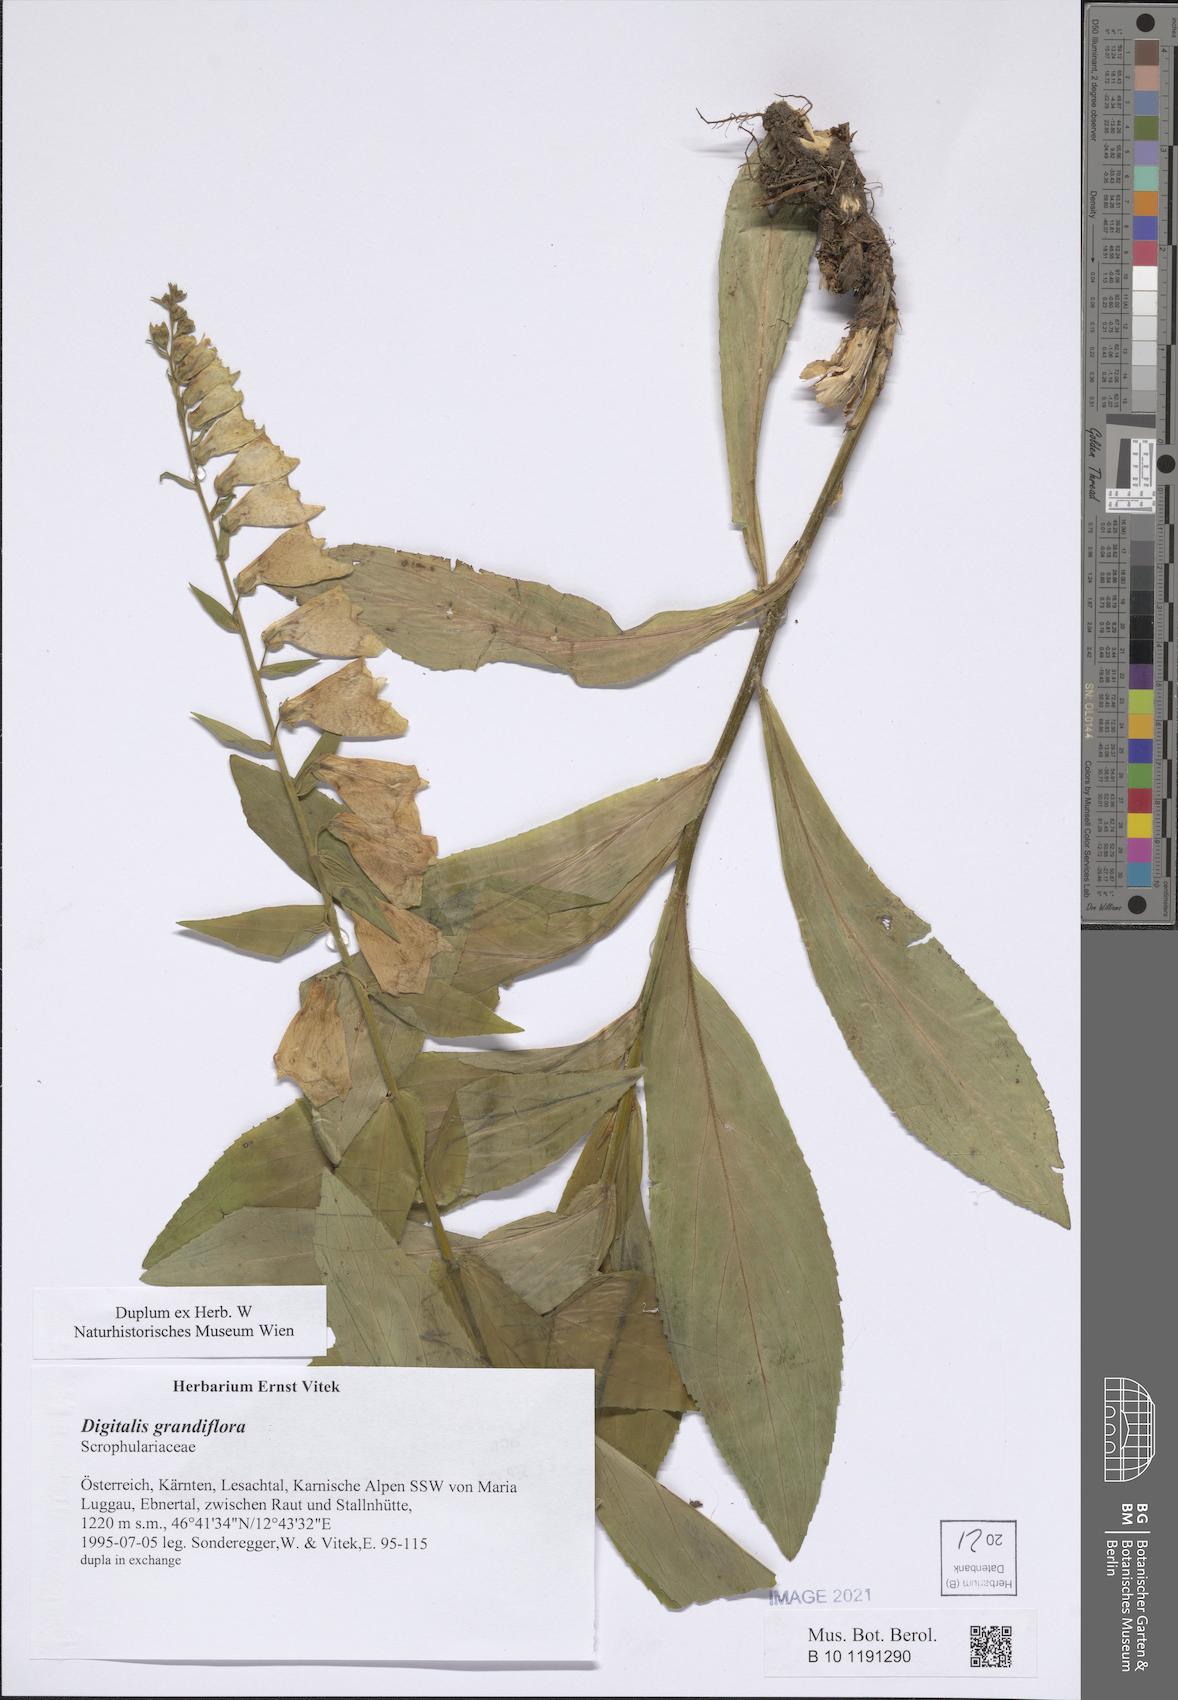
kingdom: Plantae
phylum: Tracheophyta
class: Magnoliopsida
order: Lamiales
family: Plantaginaceae
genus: Digitalis
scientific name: Digitalis grandiflora
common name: Yellow foxglove
